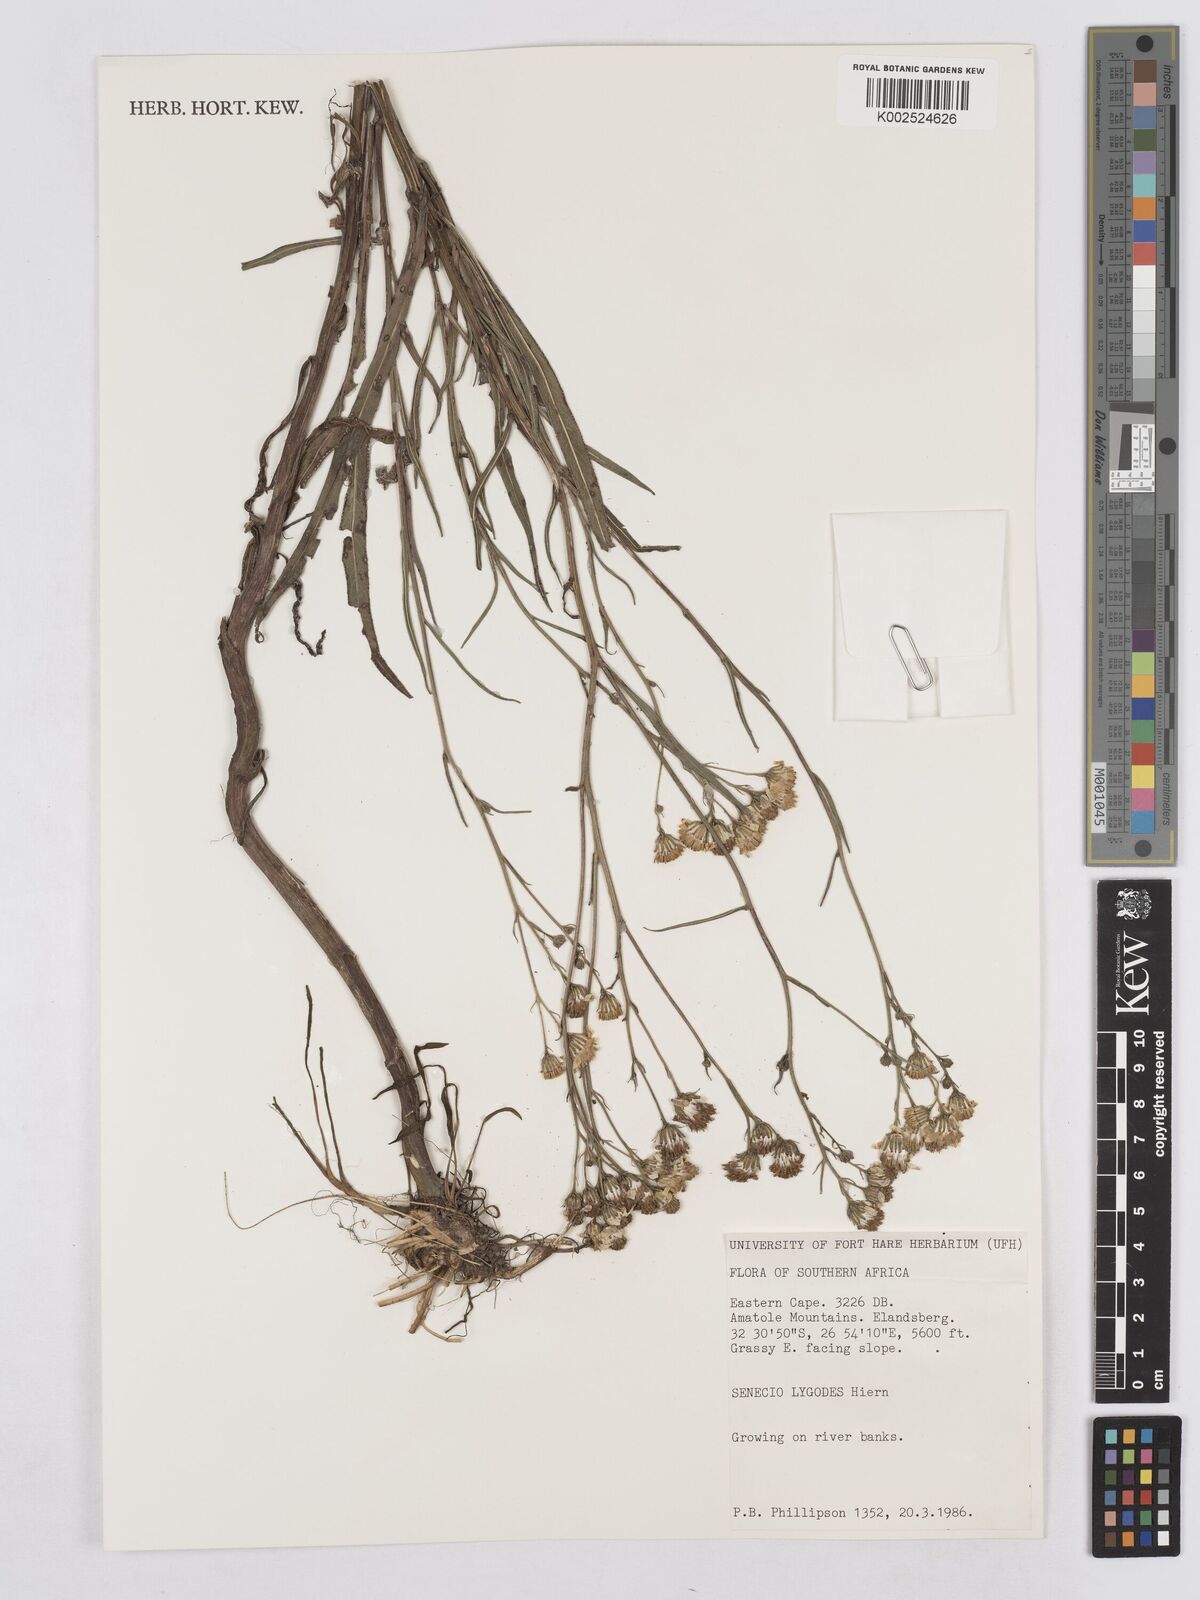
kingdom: Plantae
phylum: Tracheophyta
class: Magnoliopsida
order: Asterales
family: Asteraceae
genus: Senecio
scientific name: Senecio inornatus
